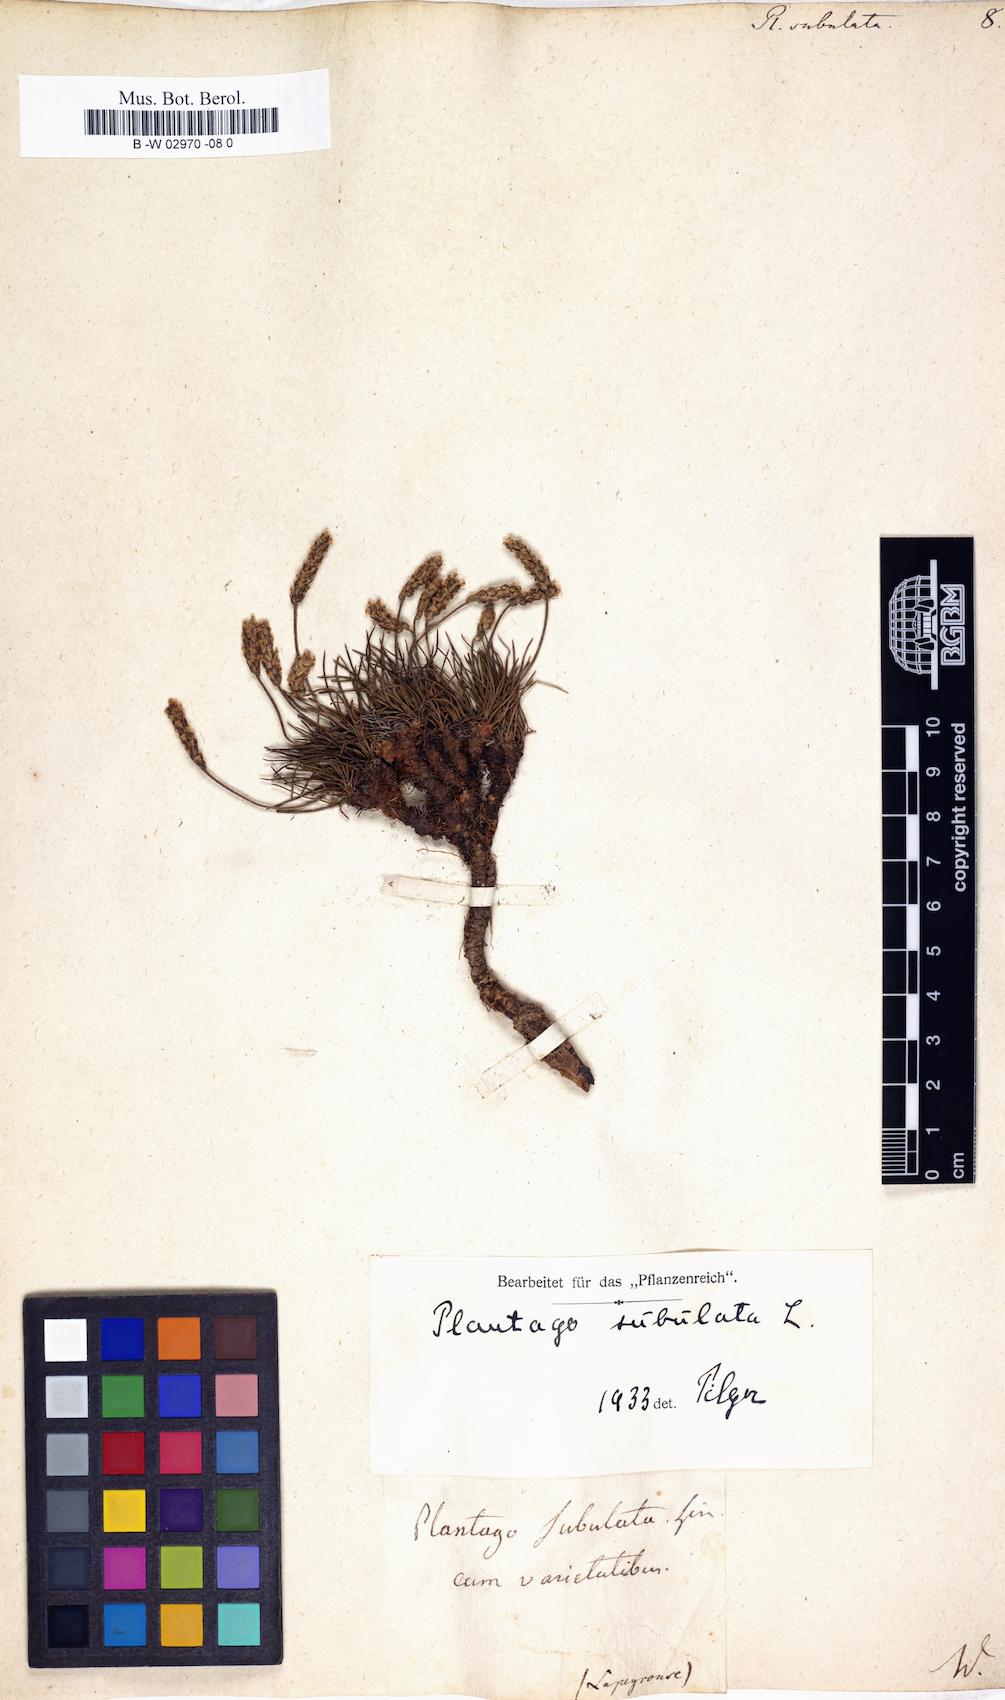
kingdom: Plantae
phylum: Tracheophyta
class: Magnoliopsida
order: Lamiales
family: Plantaginaceae
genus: Plantago
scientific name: Plantago subulata
